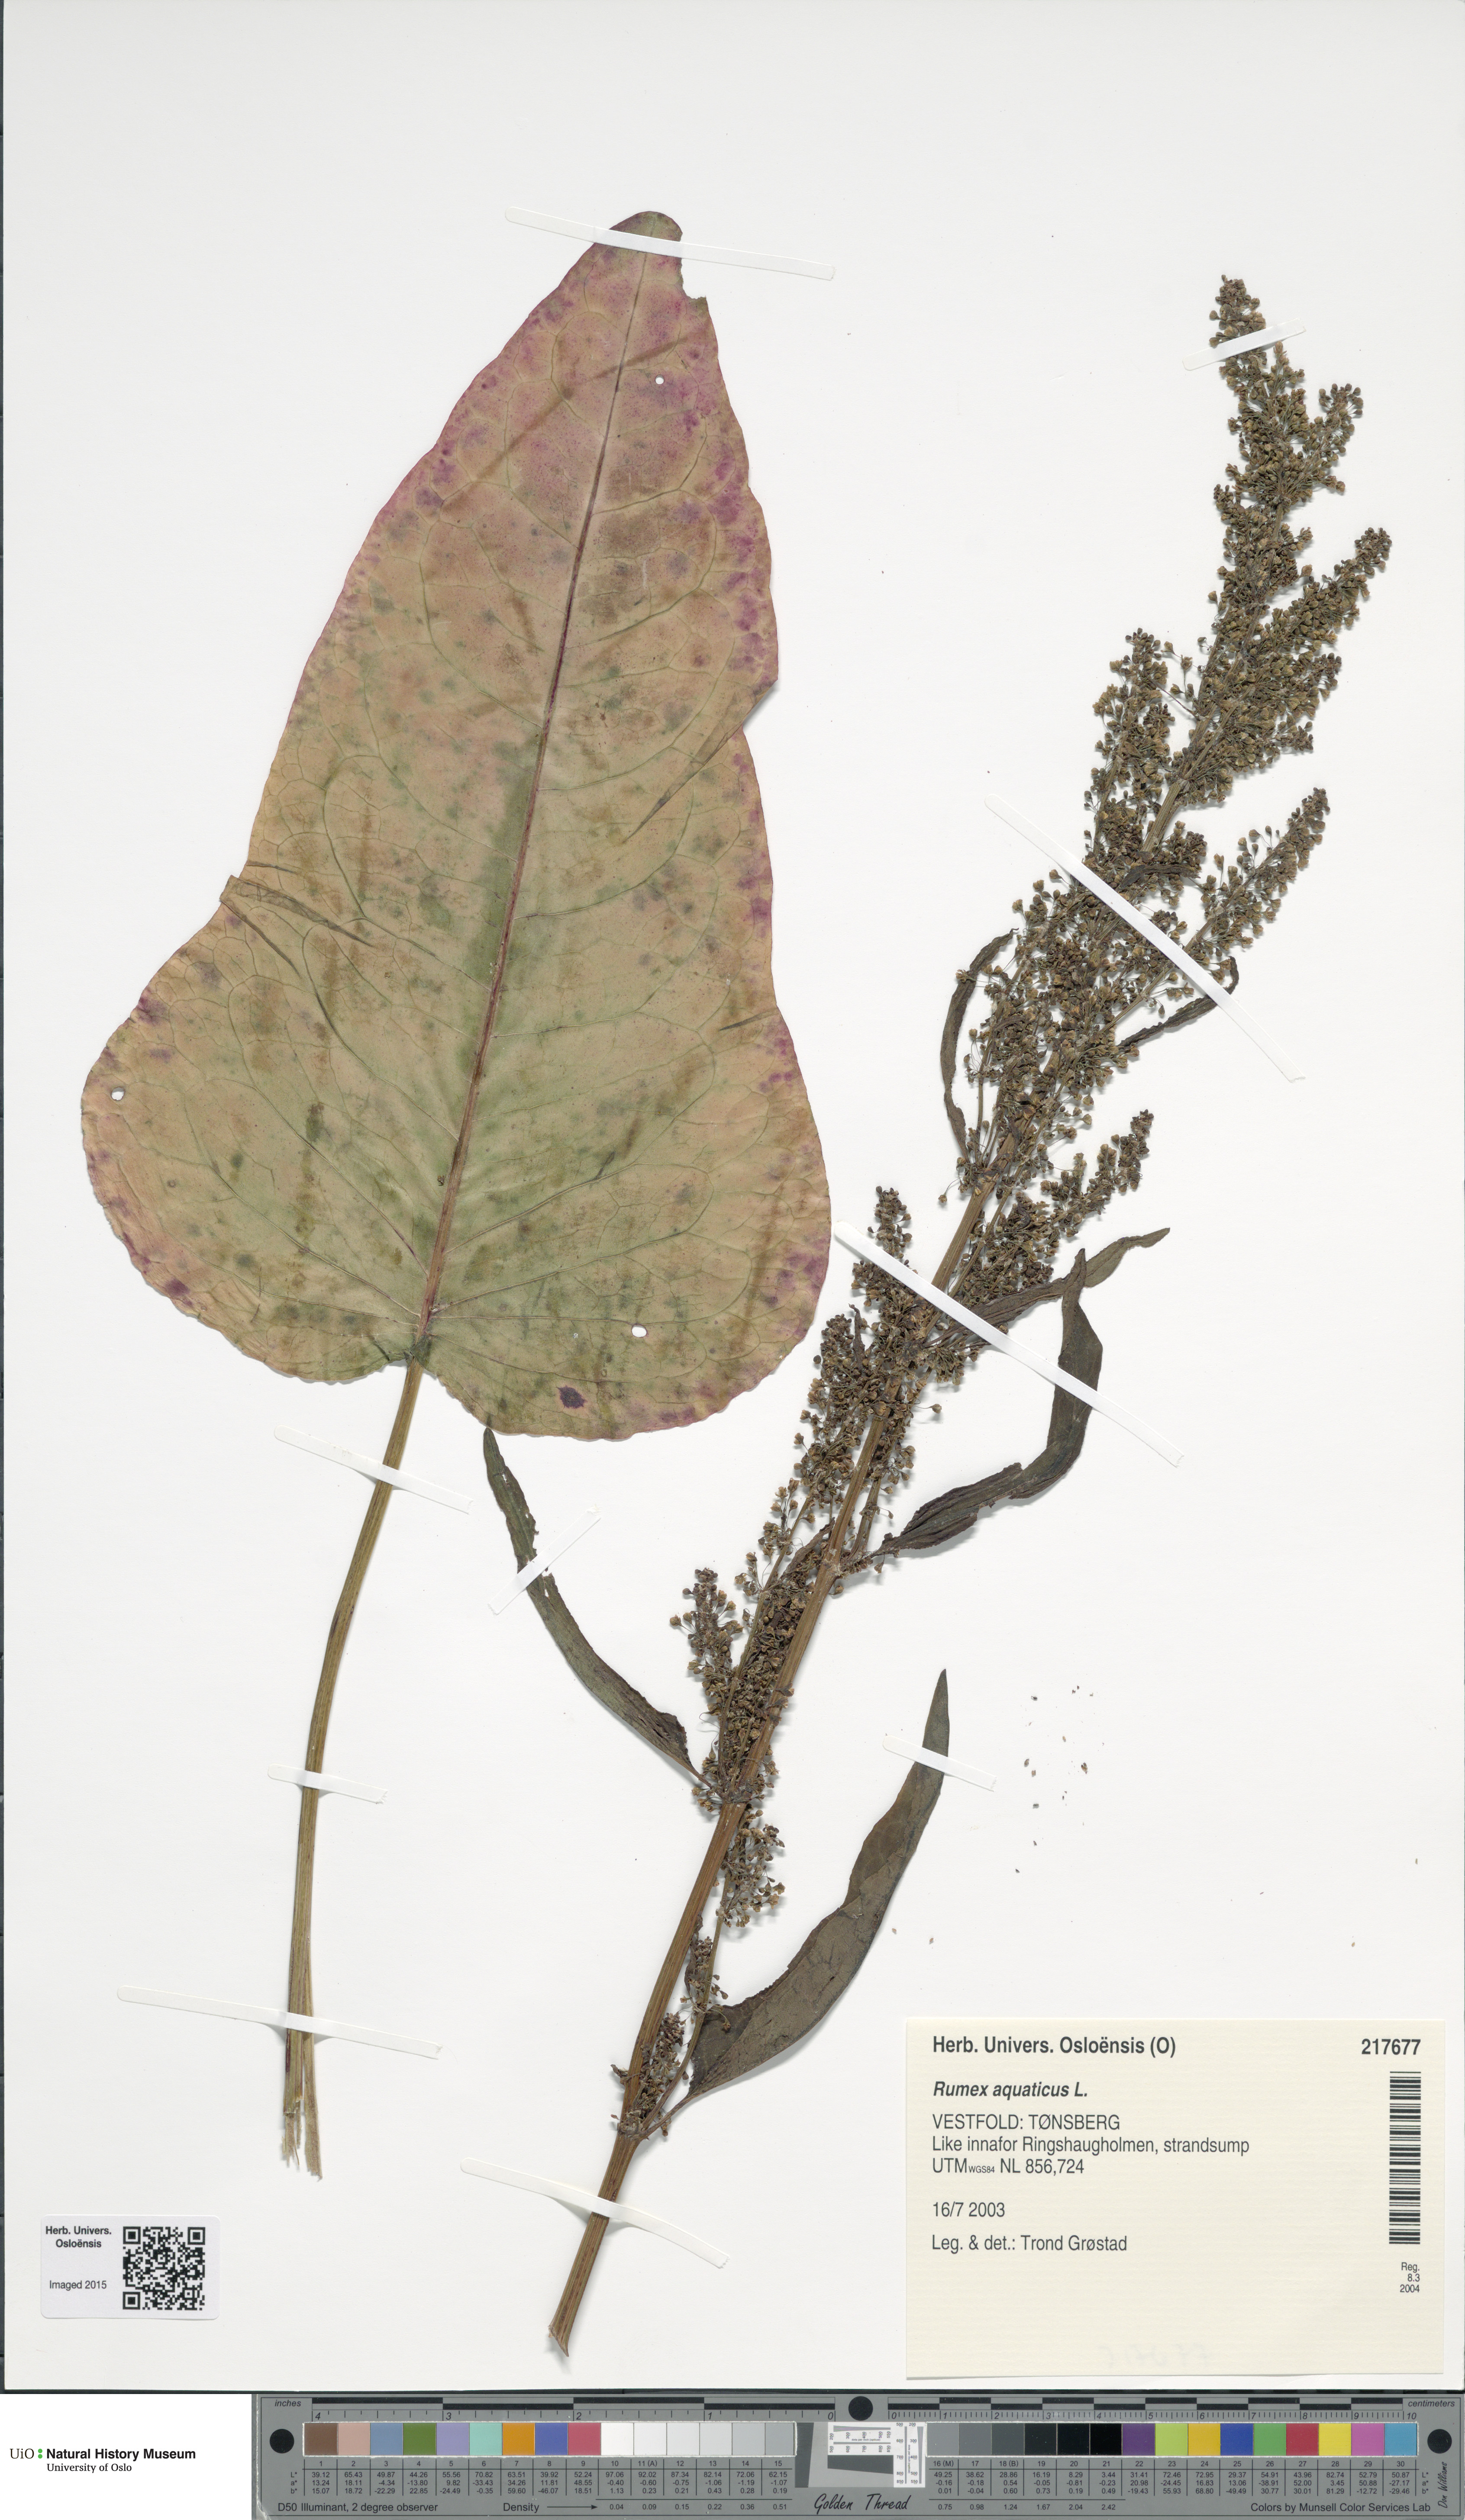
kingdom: Plantae
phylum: Tracheophyta
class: Magnoliopsida
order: Caryophyllales
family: Polygonaceae
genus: Rumex
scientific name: Rumex aquaticus
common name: Scottish dock
